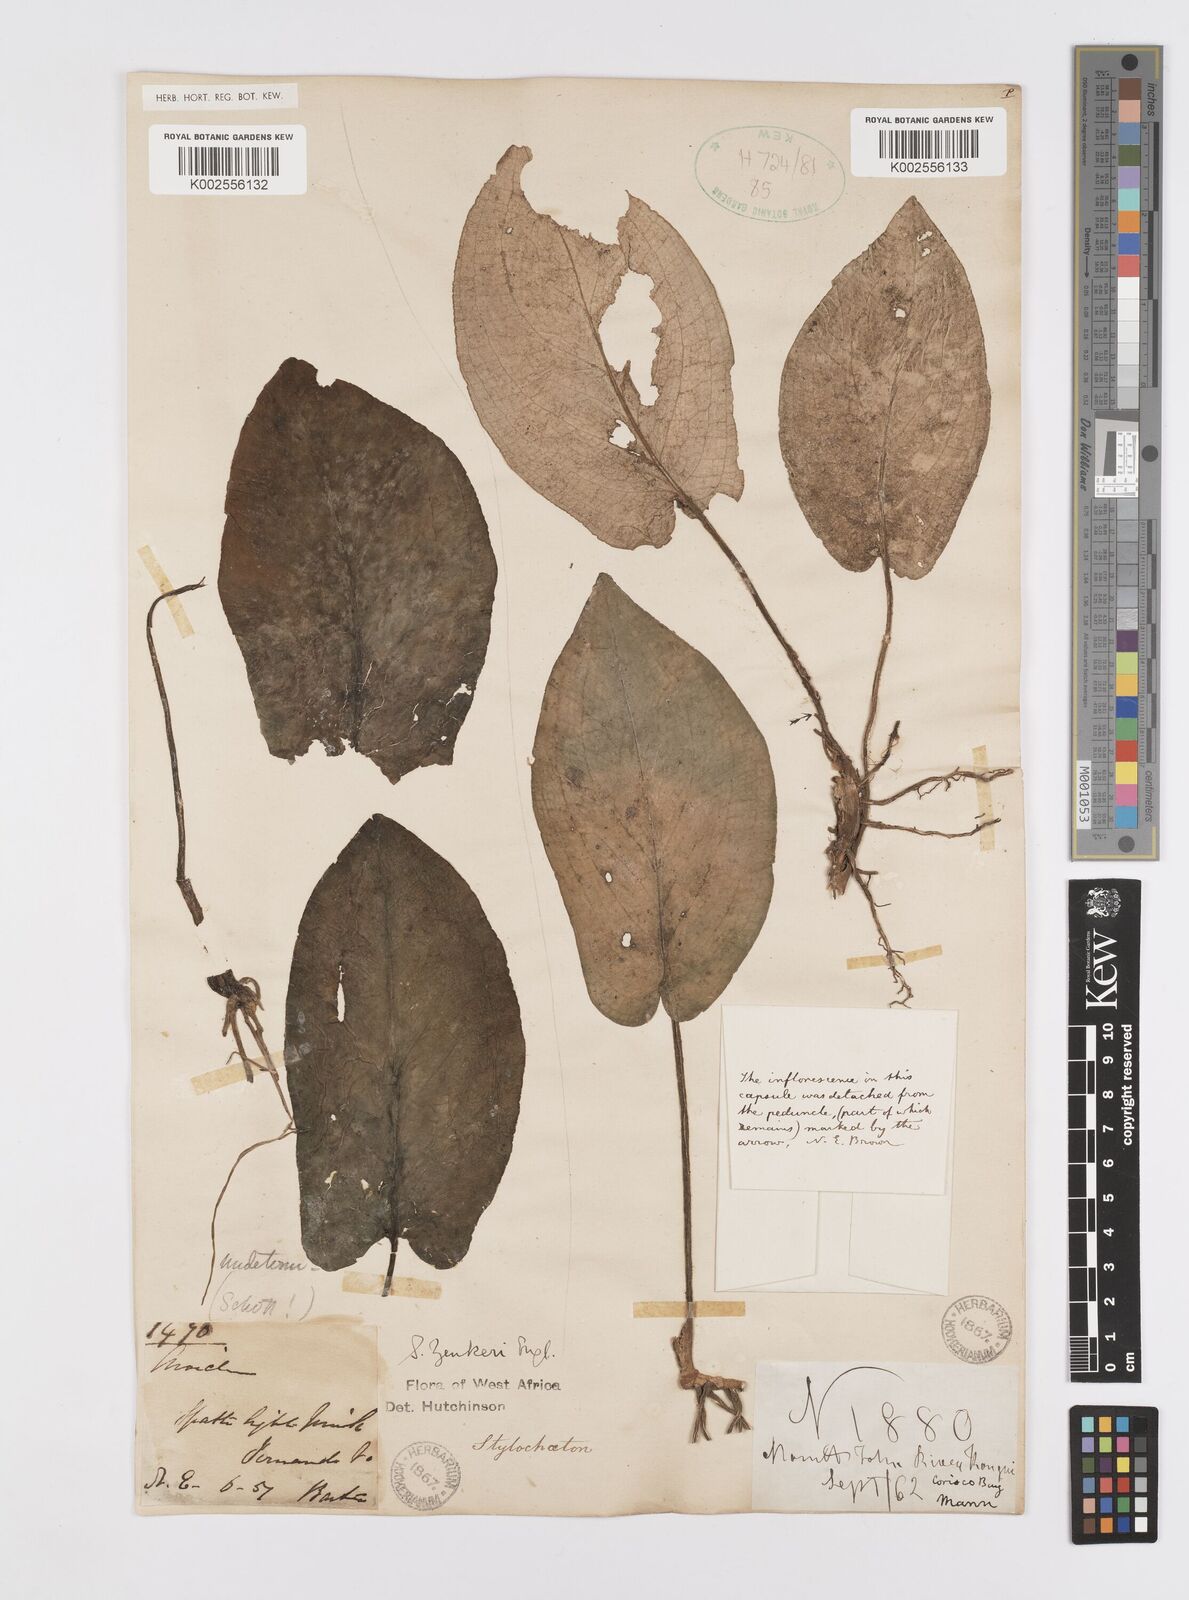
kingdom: Plantae
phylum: Tracheophyta
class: Liliopsida
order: Alismatales
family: Araceae
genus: Stylochaeton
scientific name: Stylochaeton zenkeri
